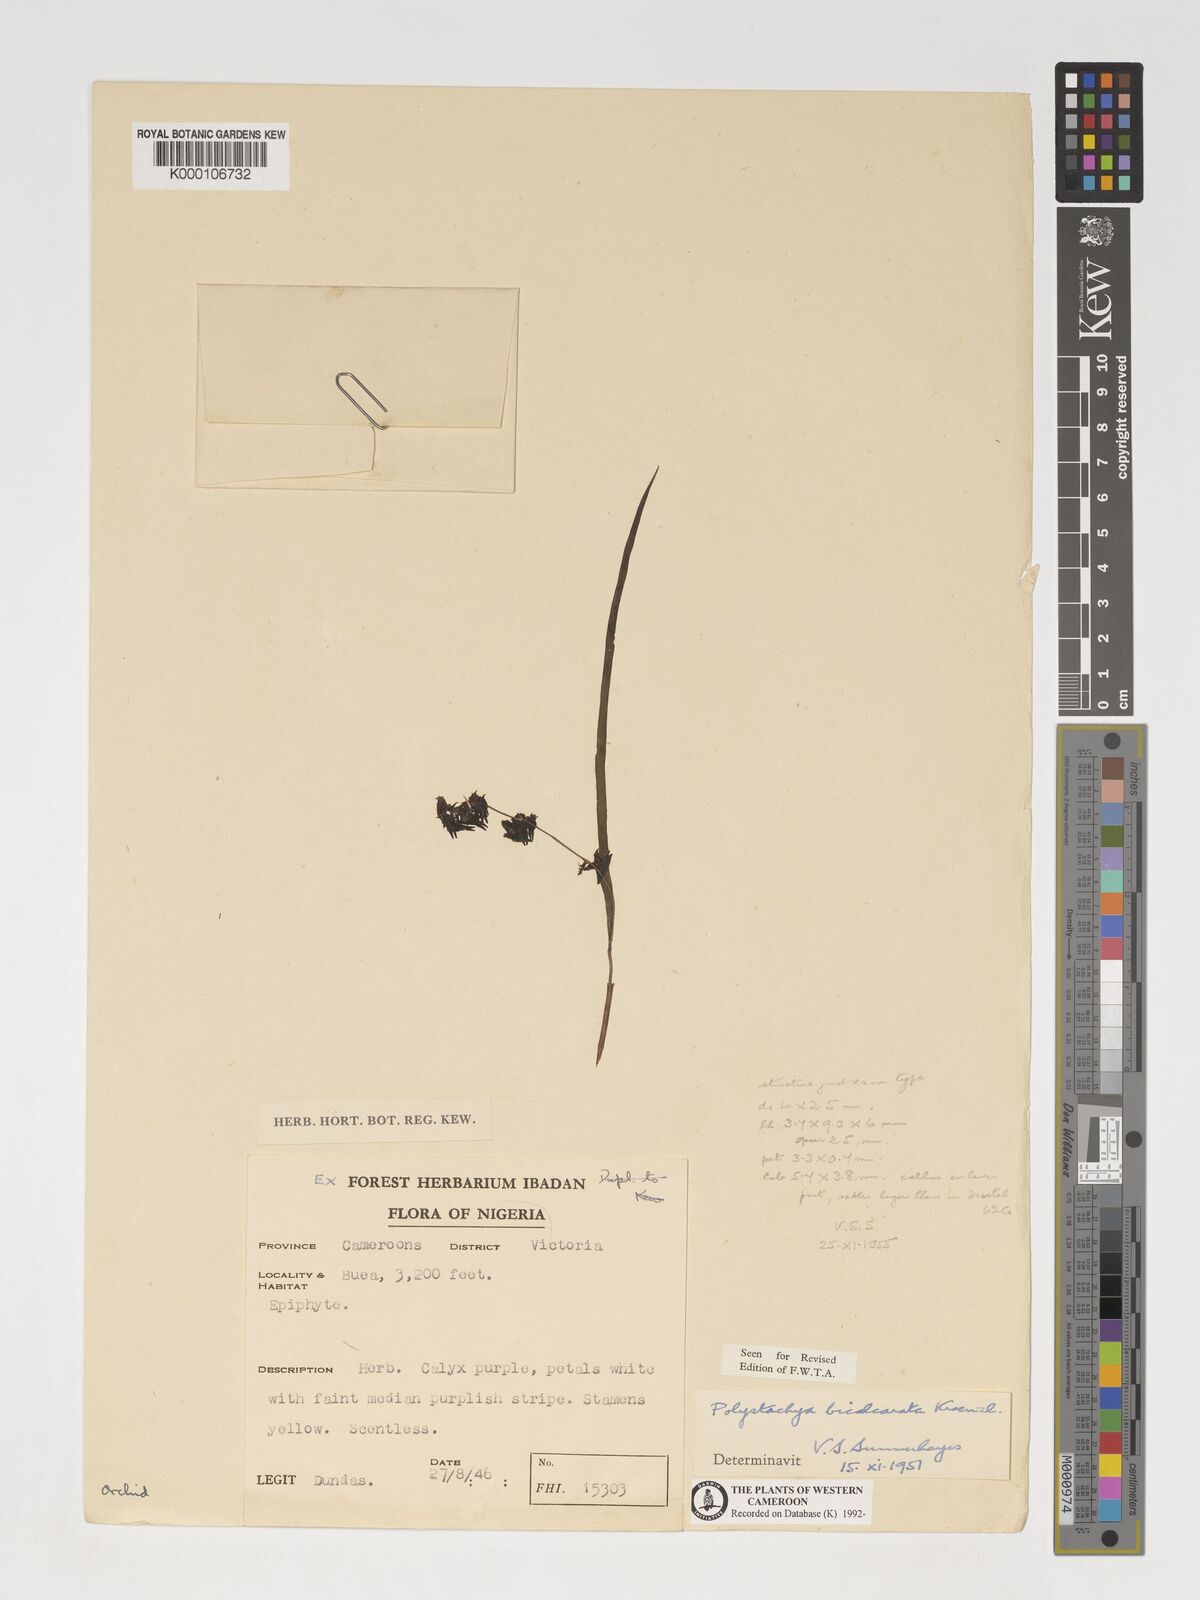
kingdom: Plantae
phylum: Tracheophyta
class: Liliopsida
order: Asparagales
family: Orchidaceae
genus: Polystachya
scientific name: Polystachya bicalcarata
